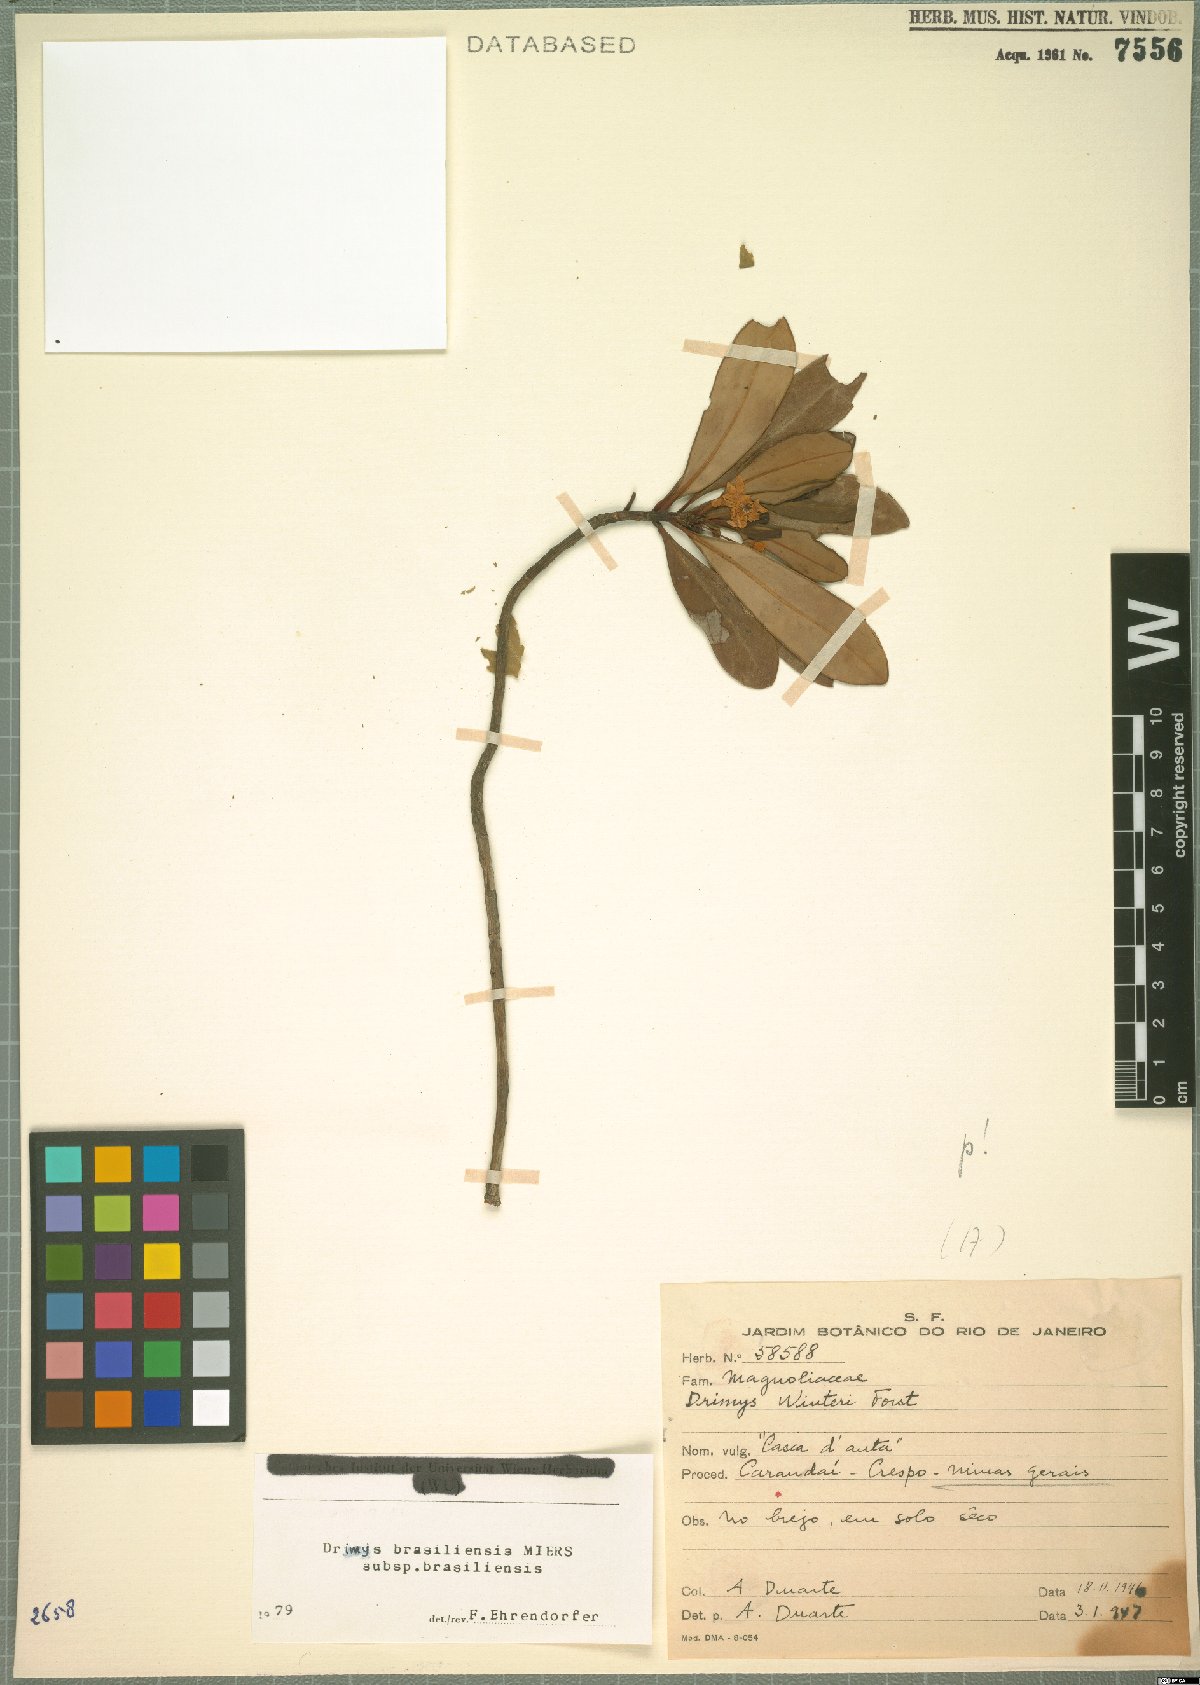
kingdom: Plantae
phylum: Tracheophyta
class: Magnoliopsida
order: Canellales
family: Winteraceae
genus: Drimys
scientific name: Drimys brasiliensis
